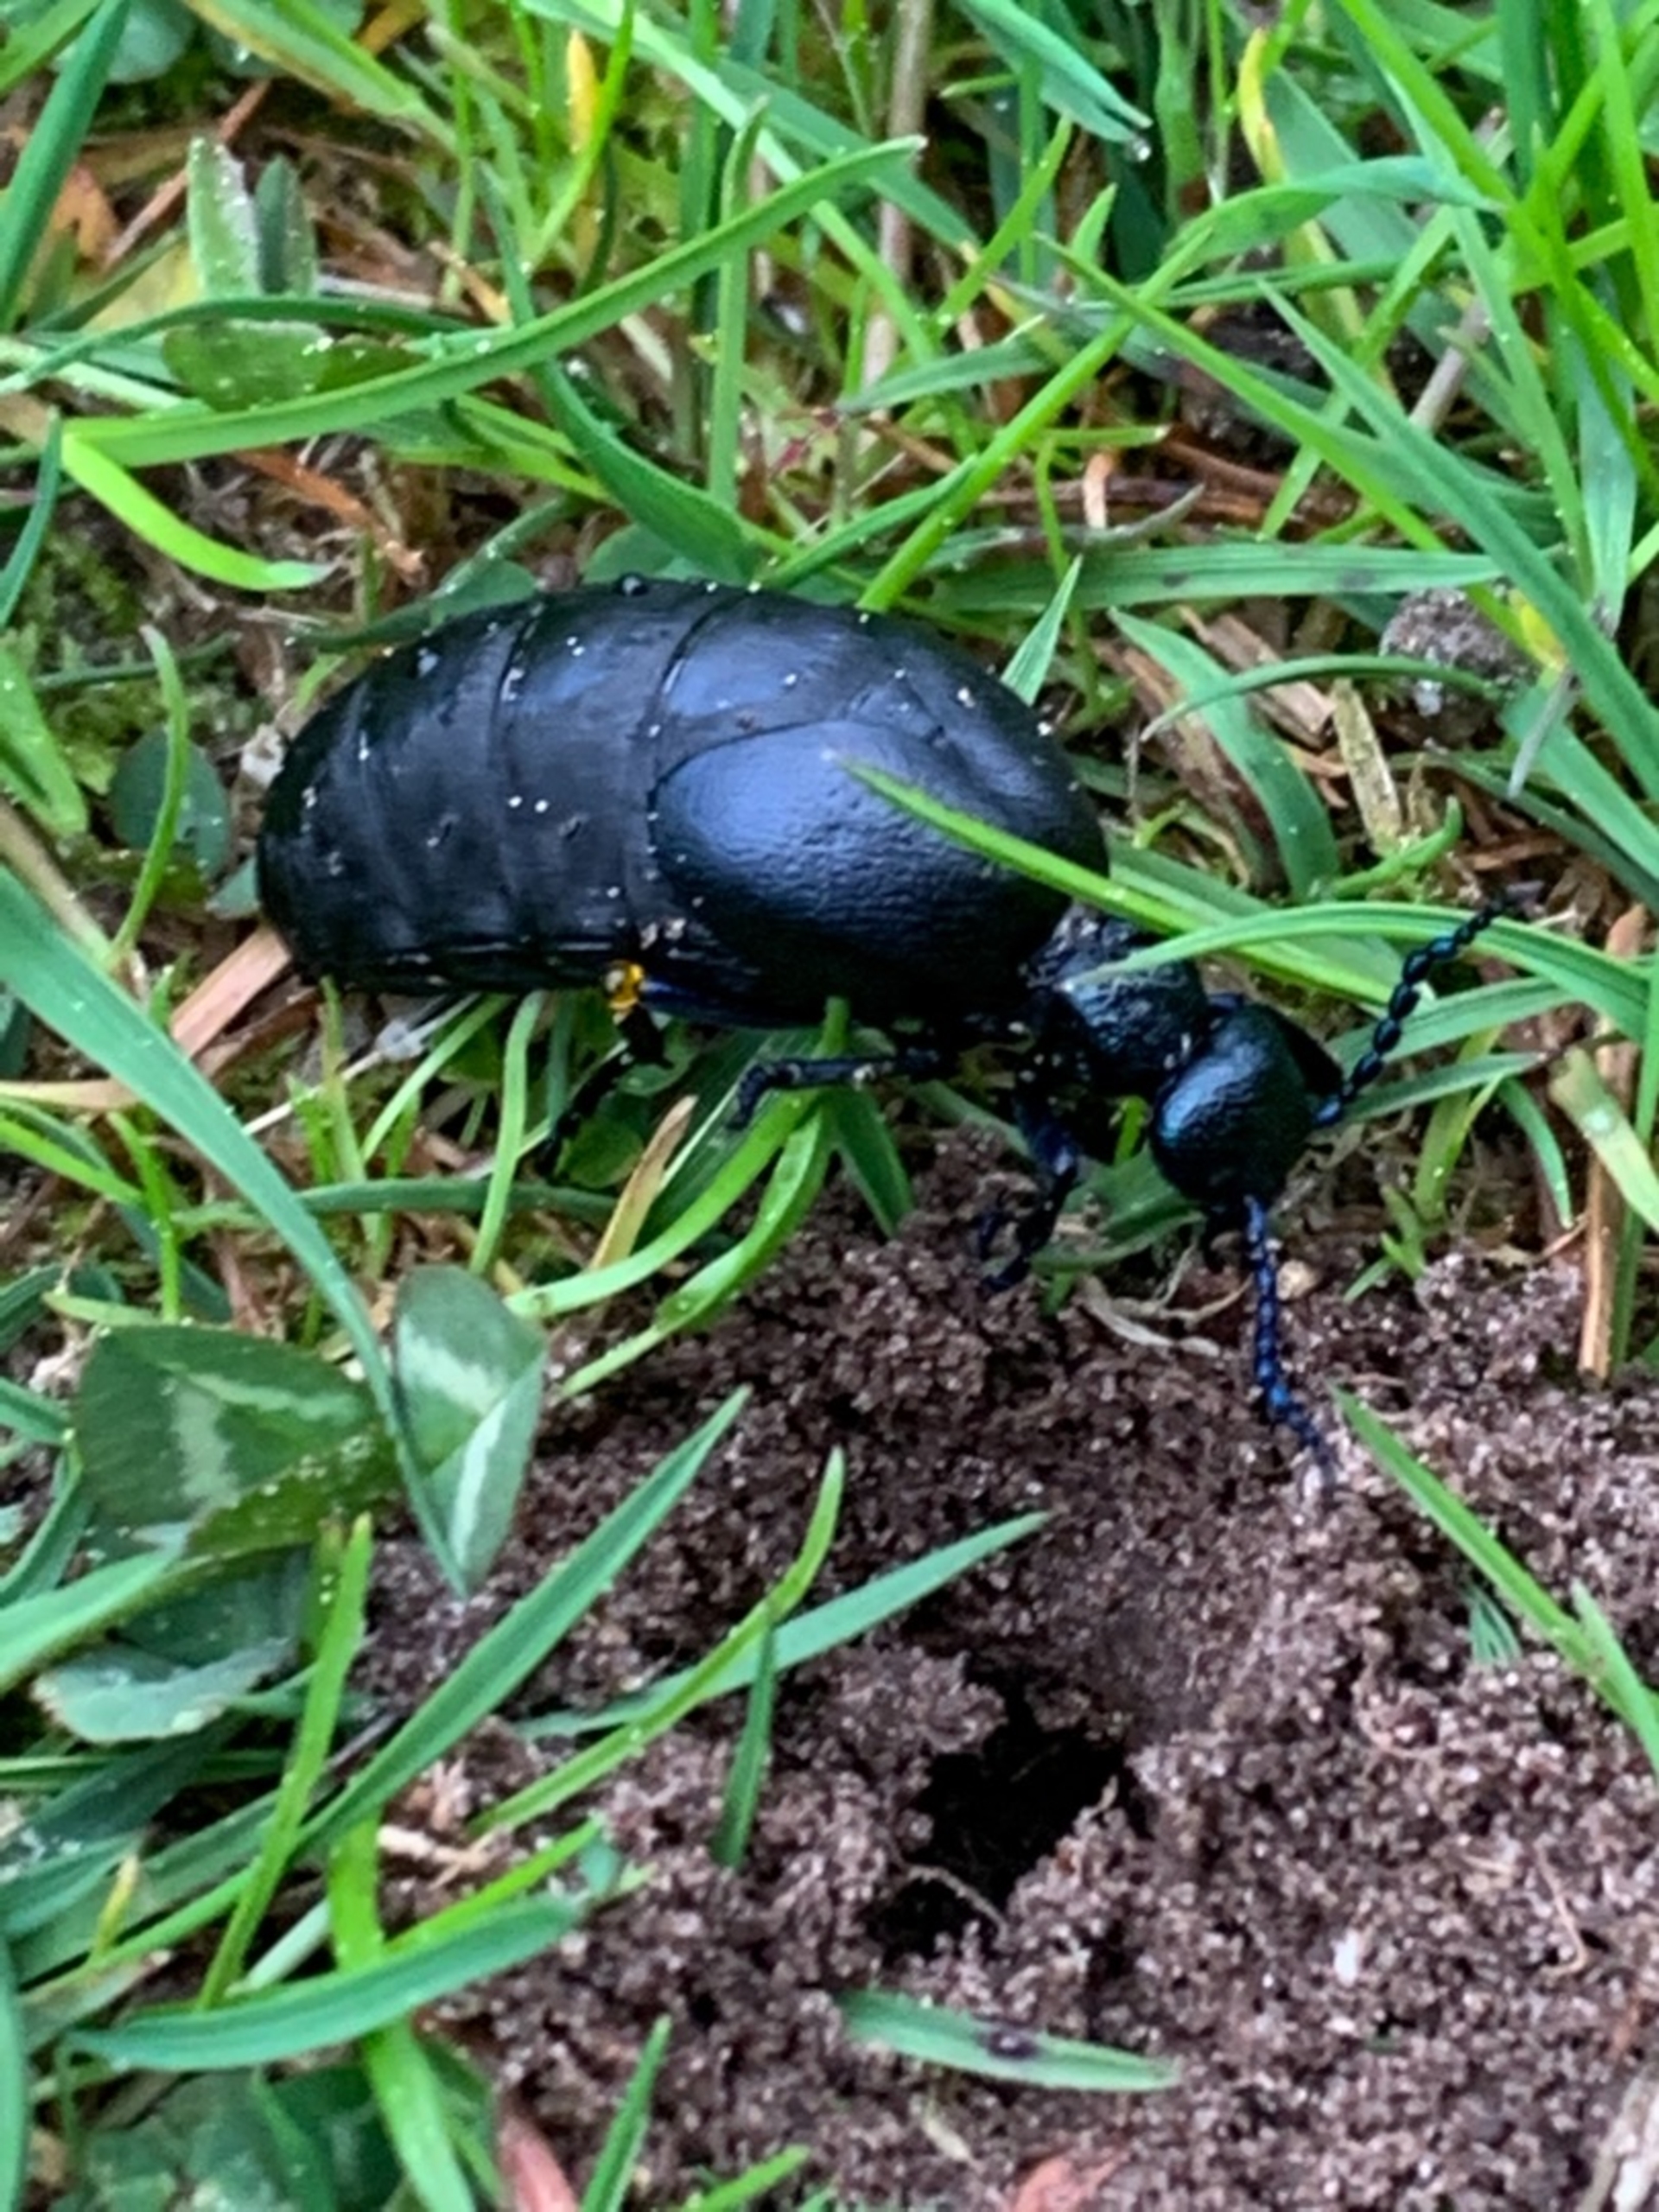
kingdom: Animalia
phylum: Arthropoda
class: Insecta
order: Coleoptera
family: Meloidae
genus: Meloe
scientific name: Meloe violaceus
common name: Blå oliebille
